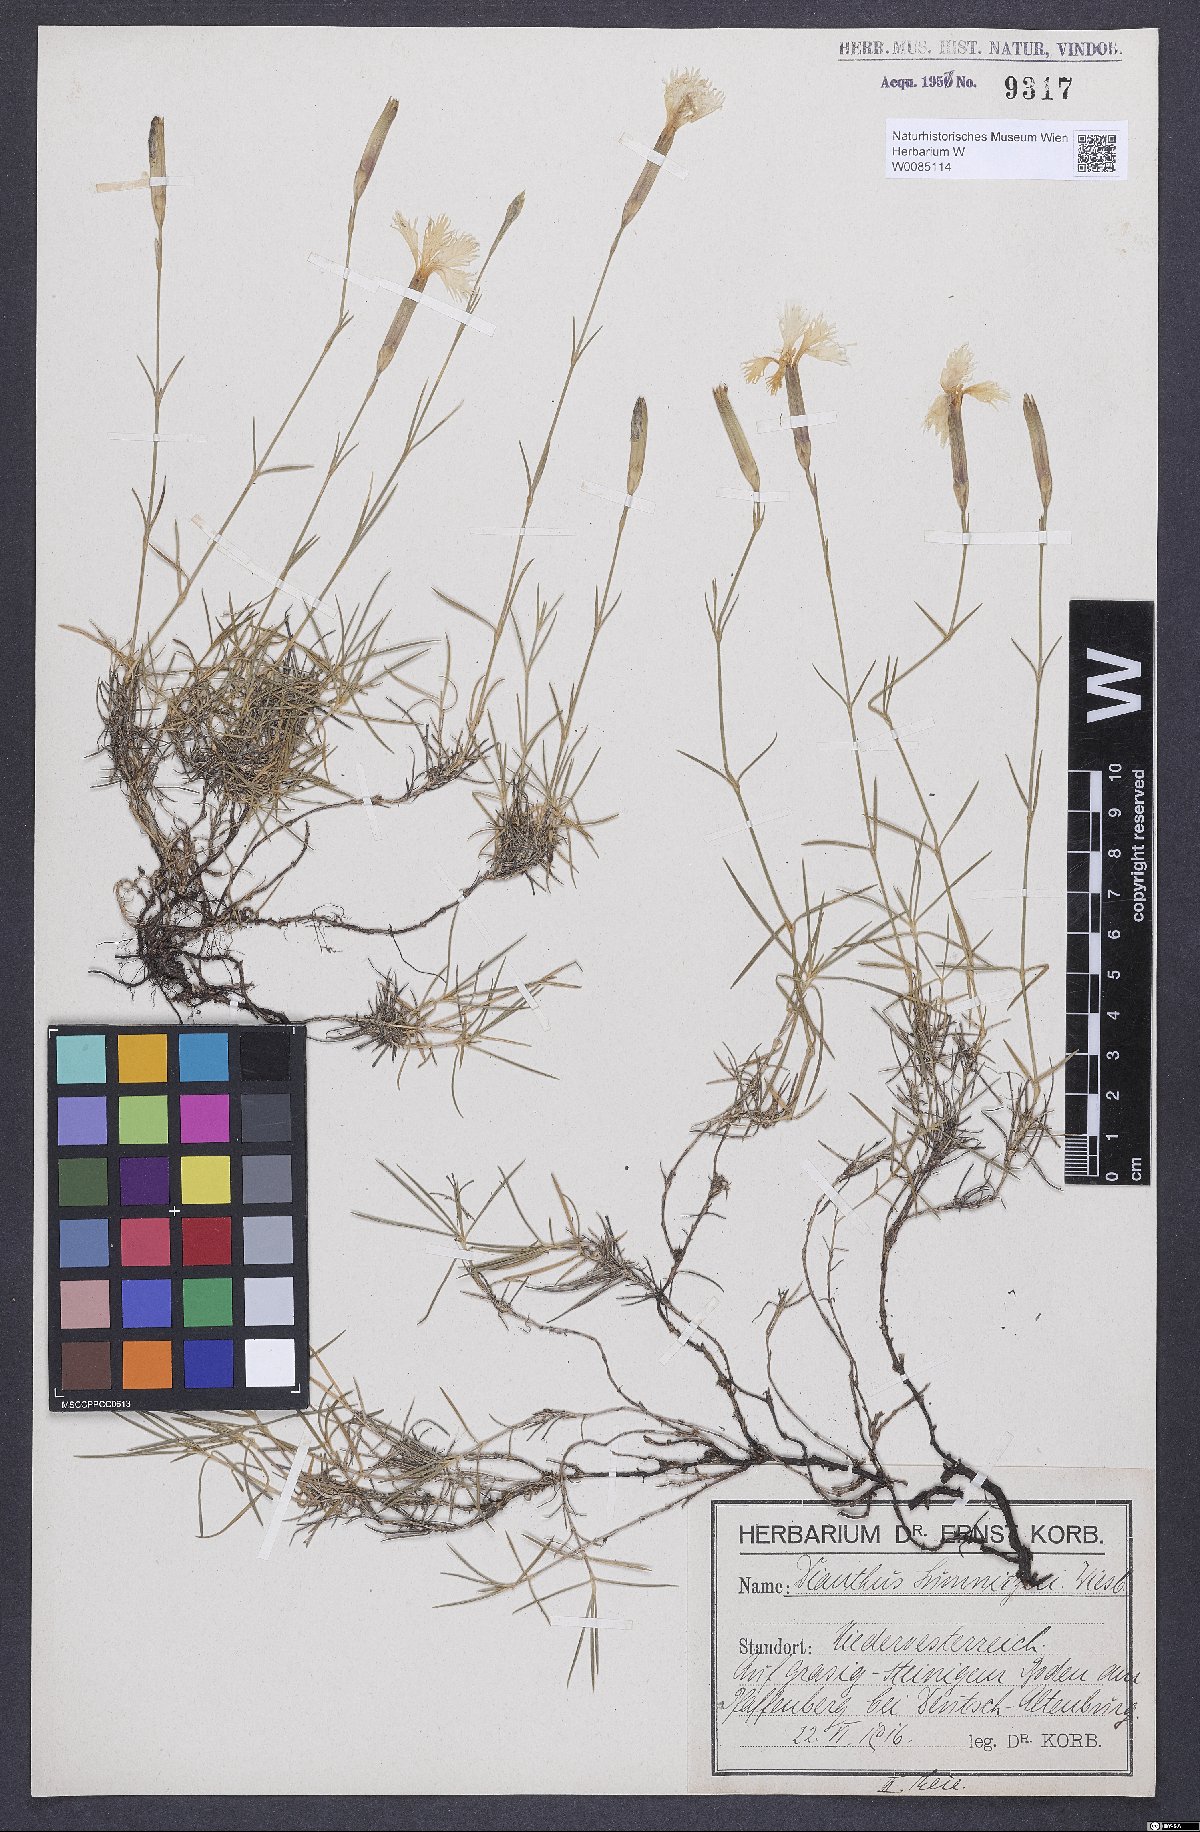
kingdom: Plantae
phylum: Tracheophyta
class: Magnoliopsida
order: Caryophyllales
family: Caryophyllaceae
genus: Dianthus
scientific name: Dianthus praecox
